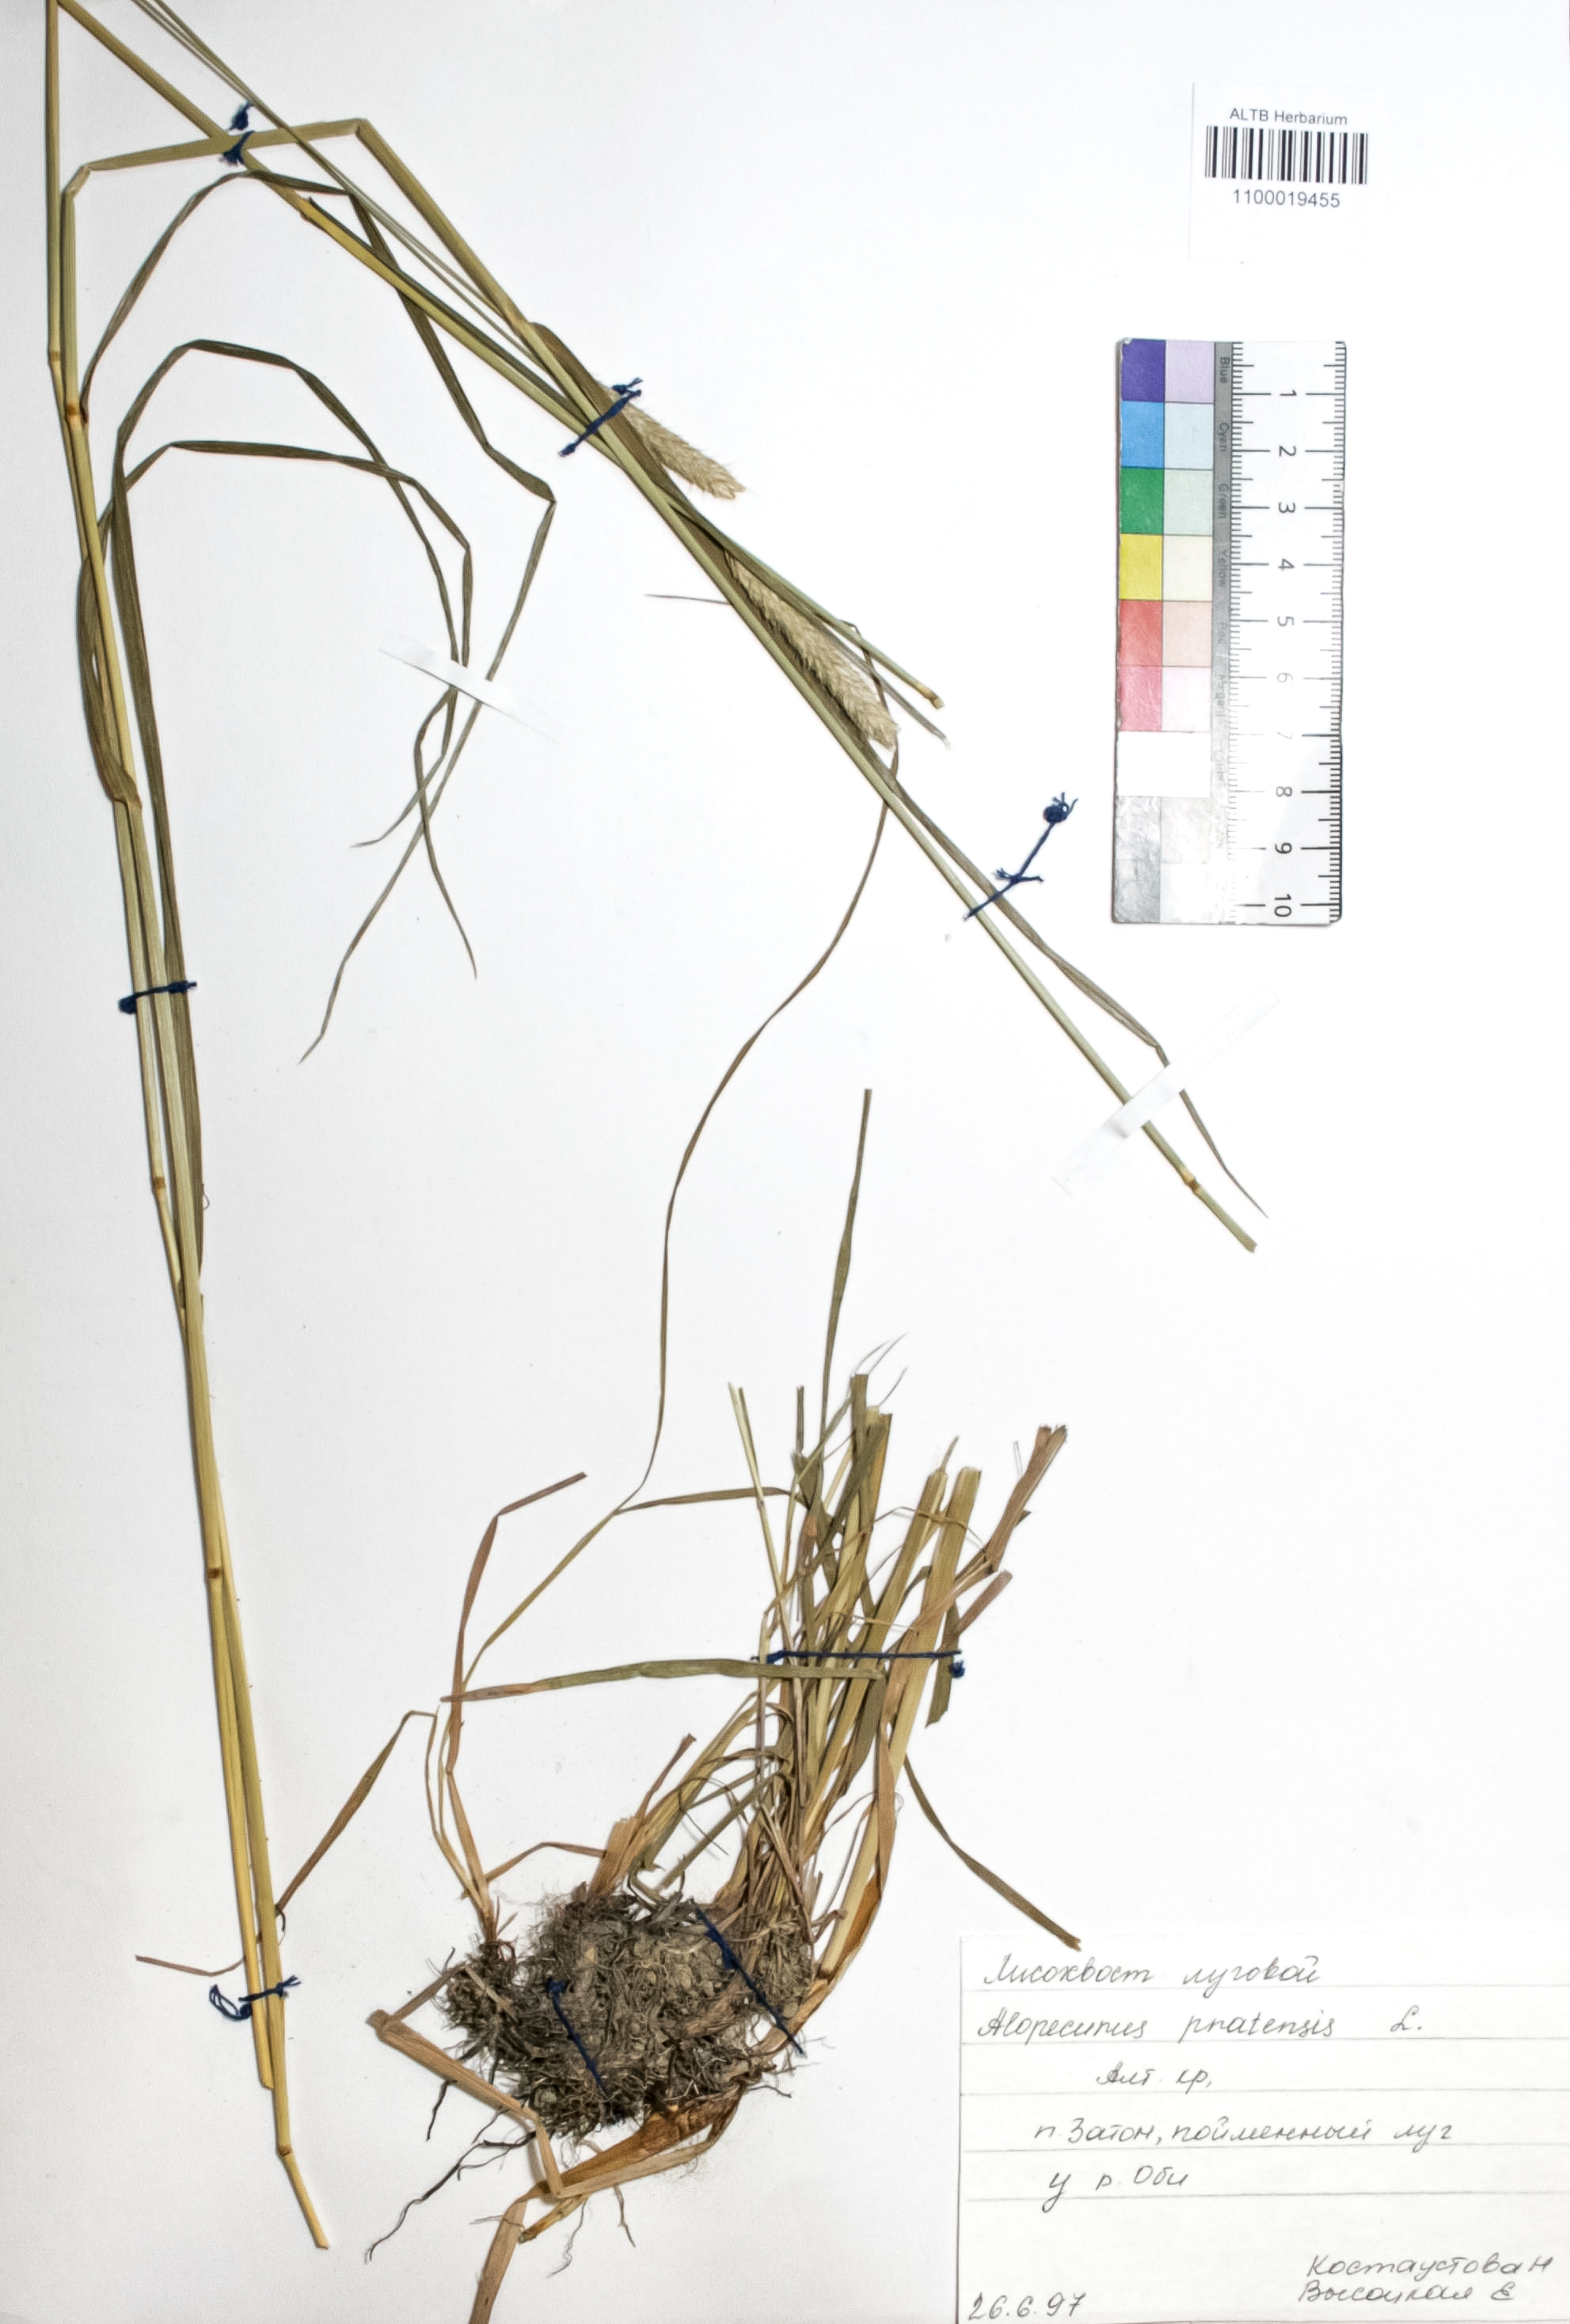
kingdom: Plantae
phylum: Tracheophyta
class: Liliopsida
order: Poales
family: Poaceae
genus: Alopecurus
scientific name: Alopecurus pratensis
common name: Meadow foxtail
